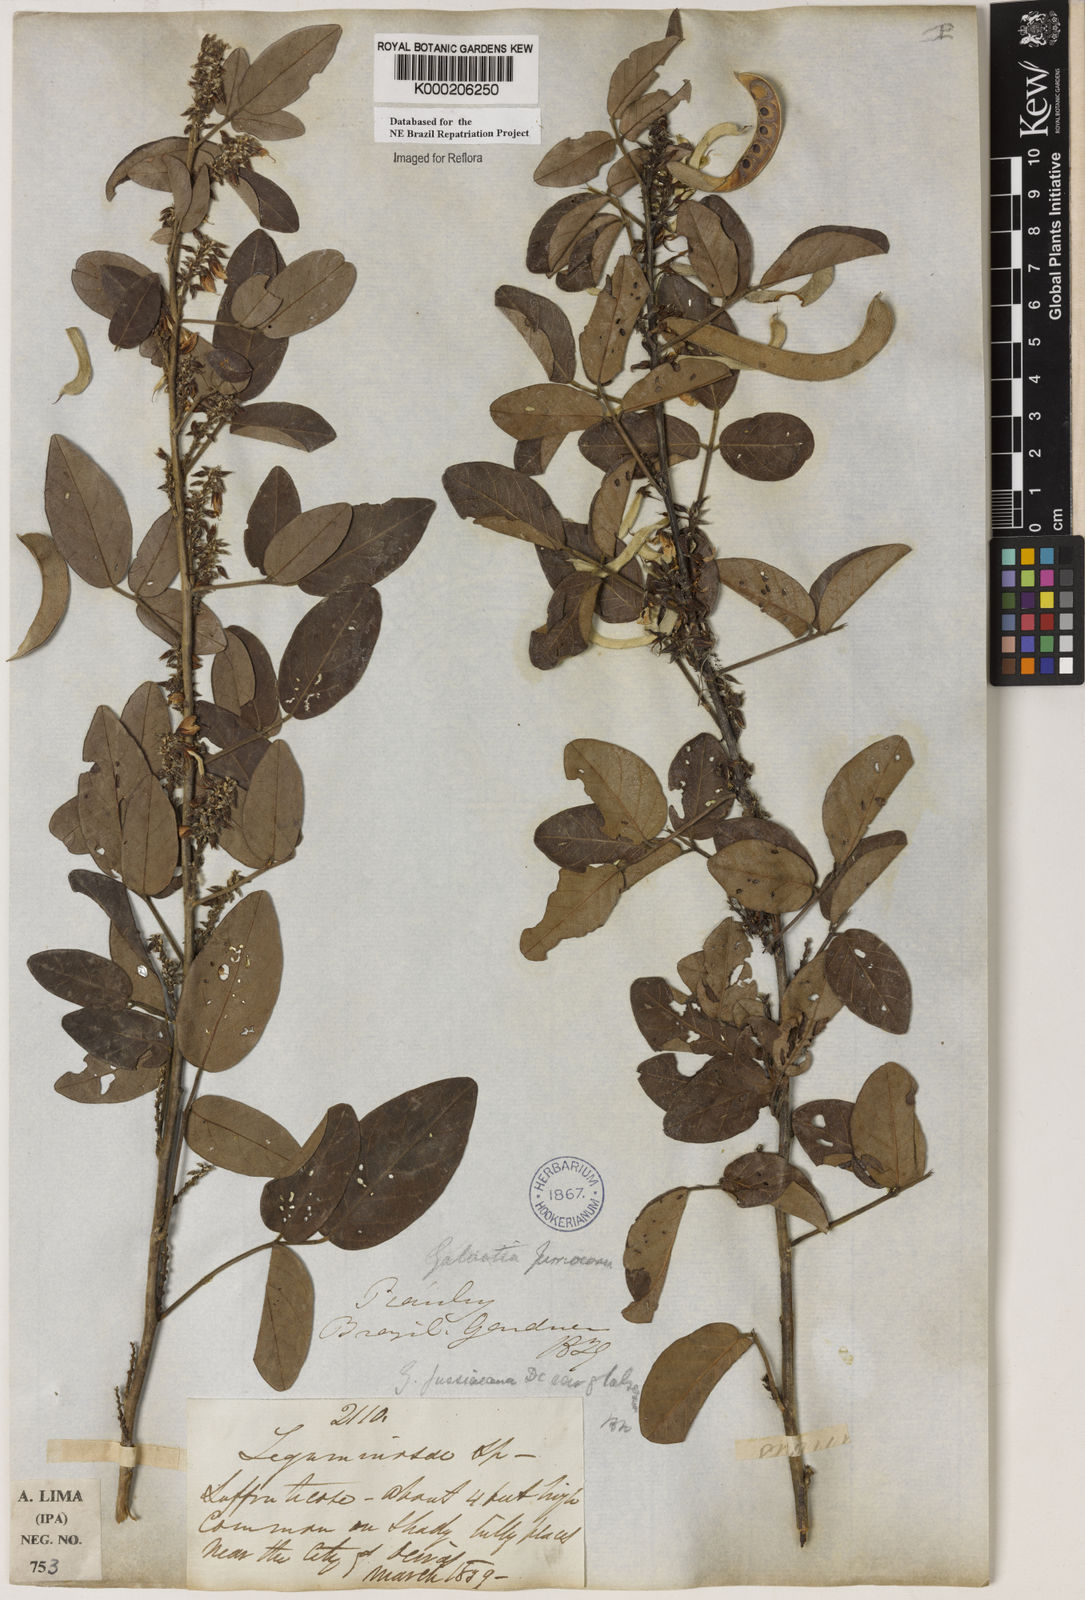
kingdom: Plantae
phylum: Tracheophyta
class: Magnoliopsida
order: Fabales
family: Fabaceae
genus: Galactia
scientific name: Galactia jussiaeana
